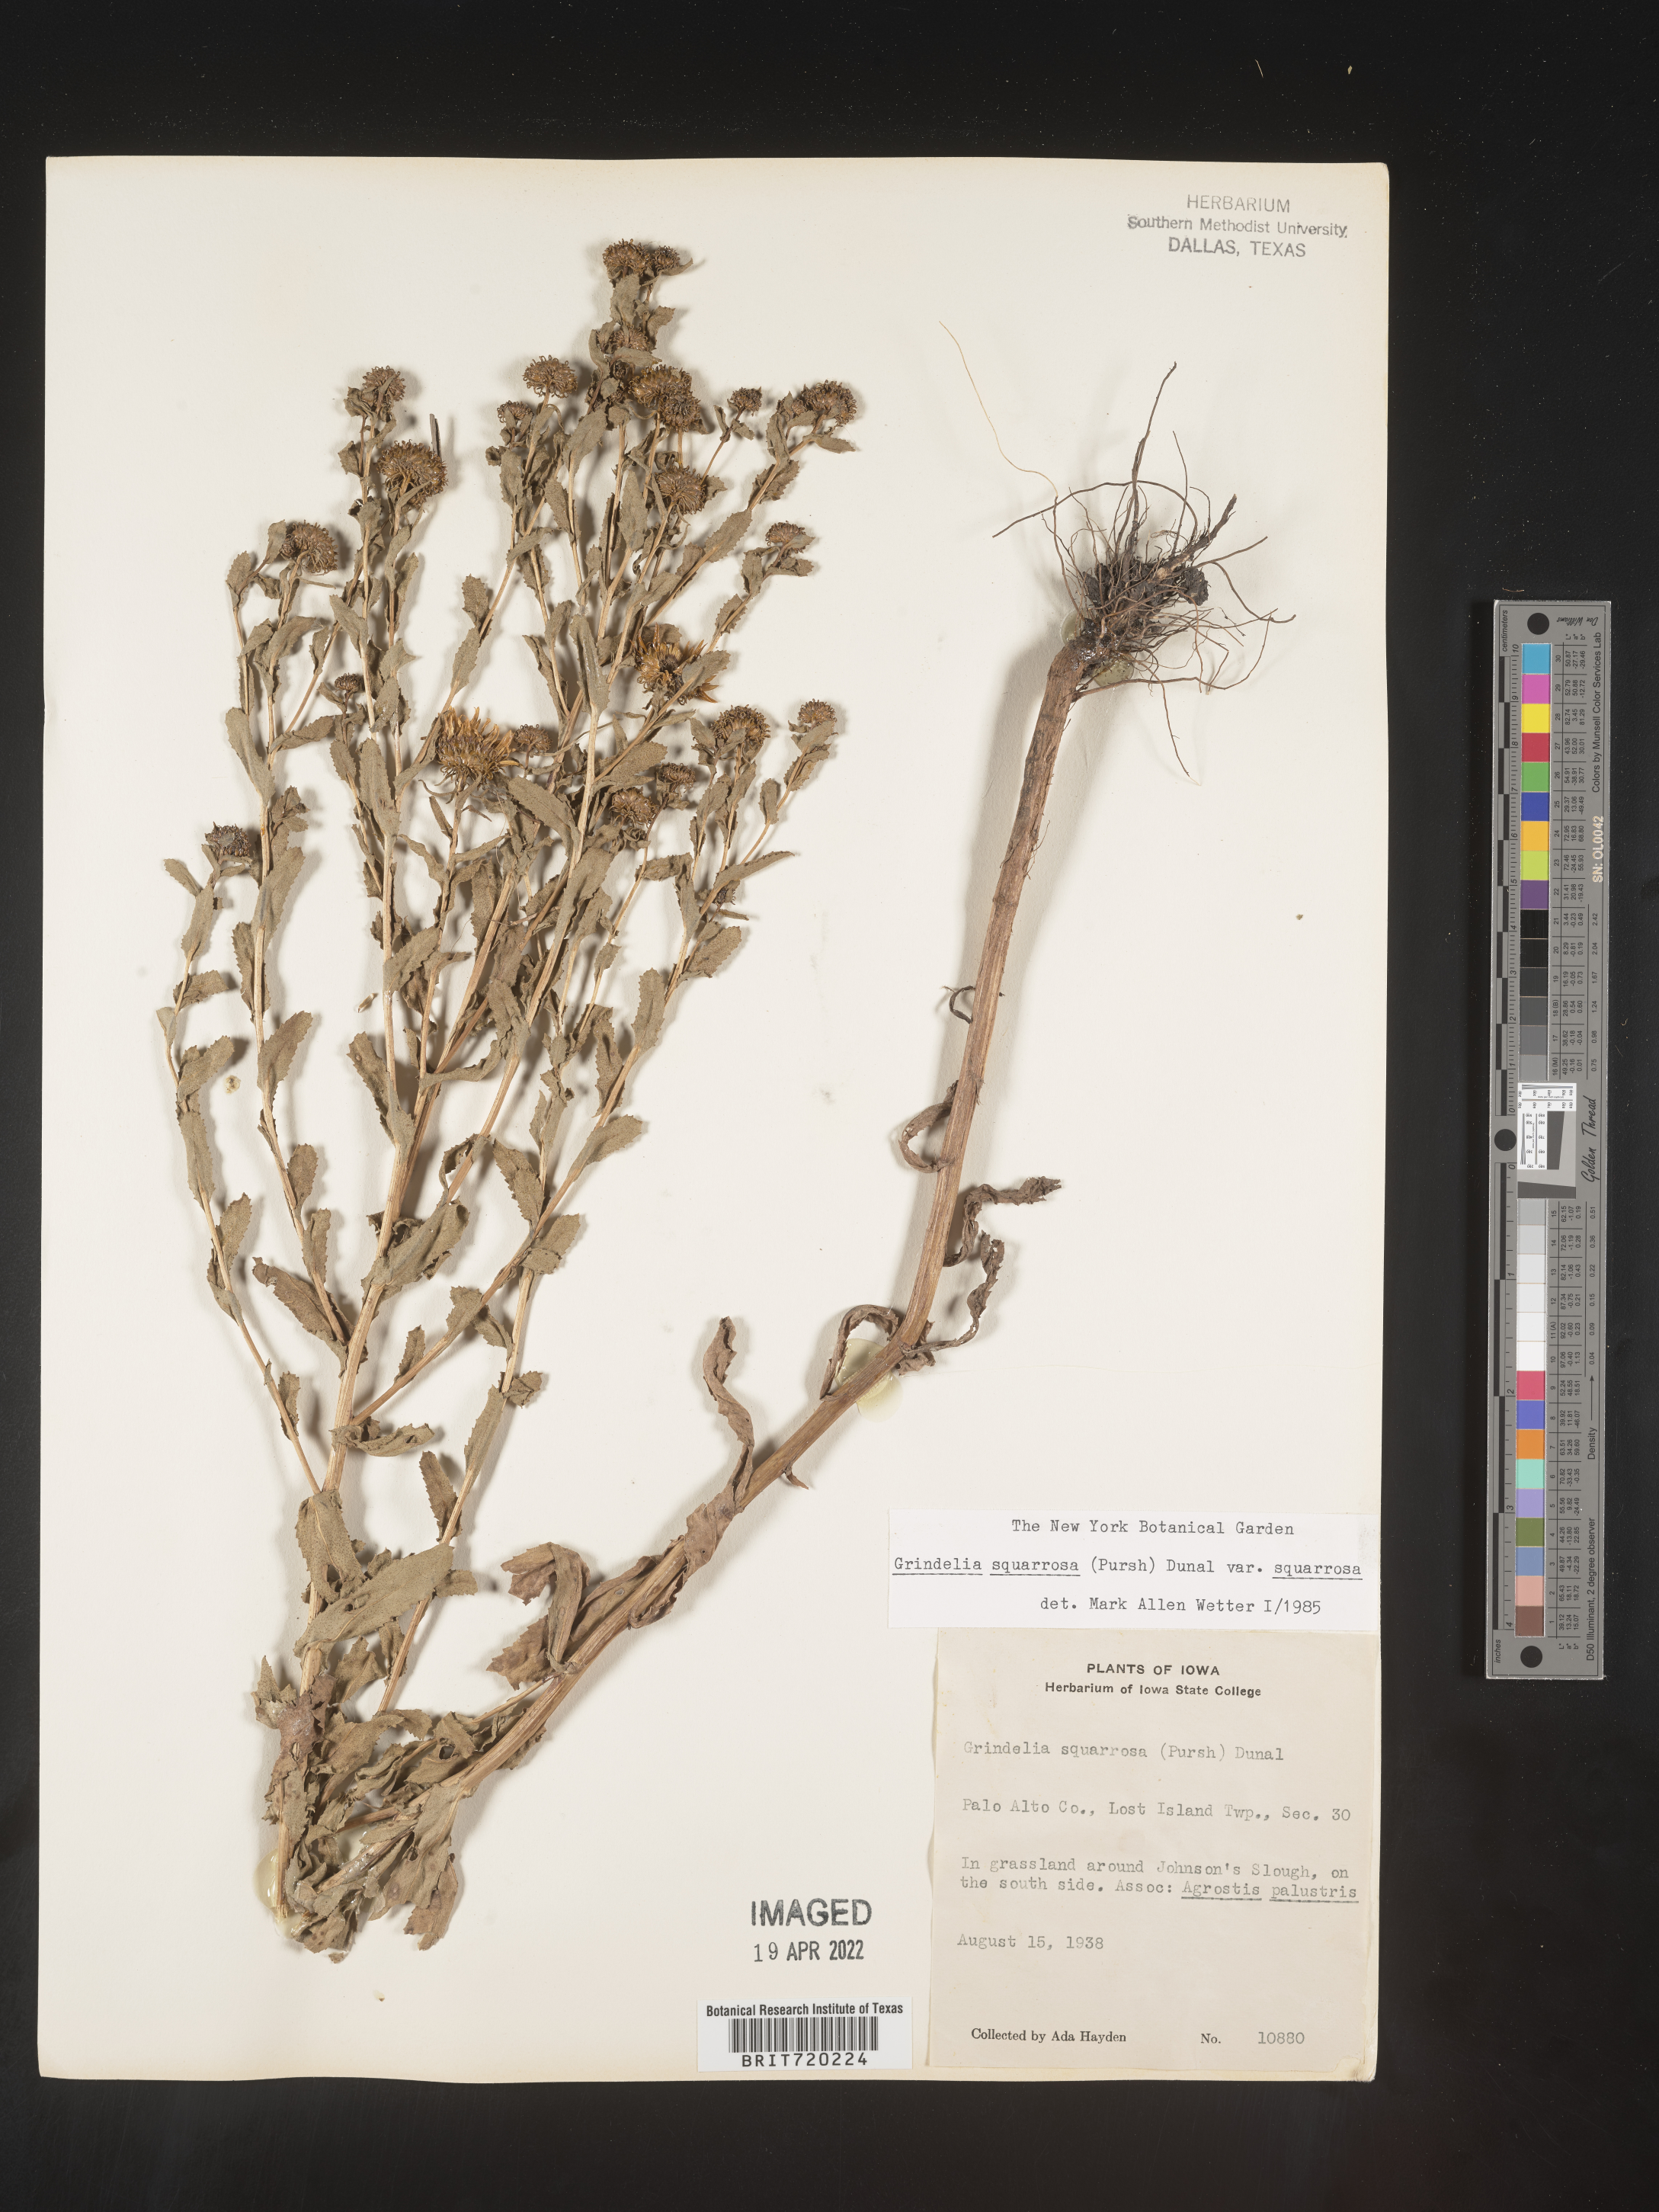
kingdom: Plantae
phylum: Tracheophyta
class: Magnoliopsida
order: Asterales
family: Asteraceae
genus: Grindelia
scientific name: Grindelia squarrosa
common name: Curly-cup gumweed
